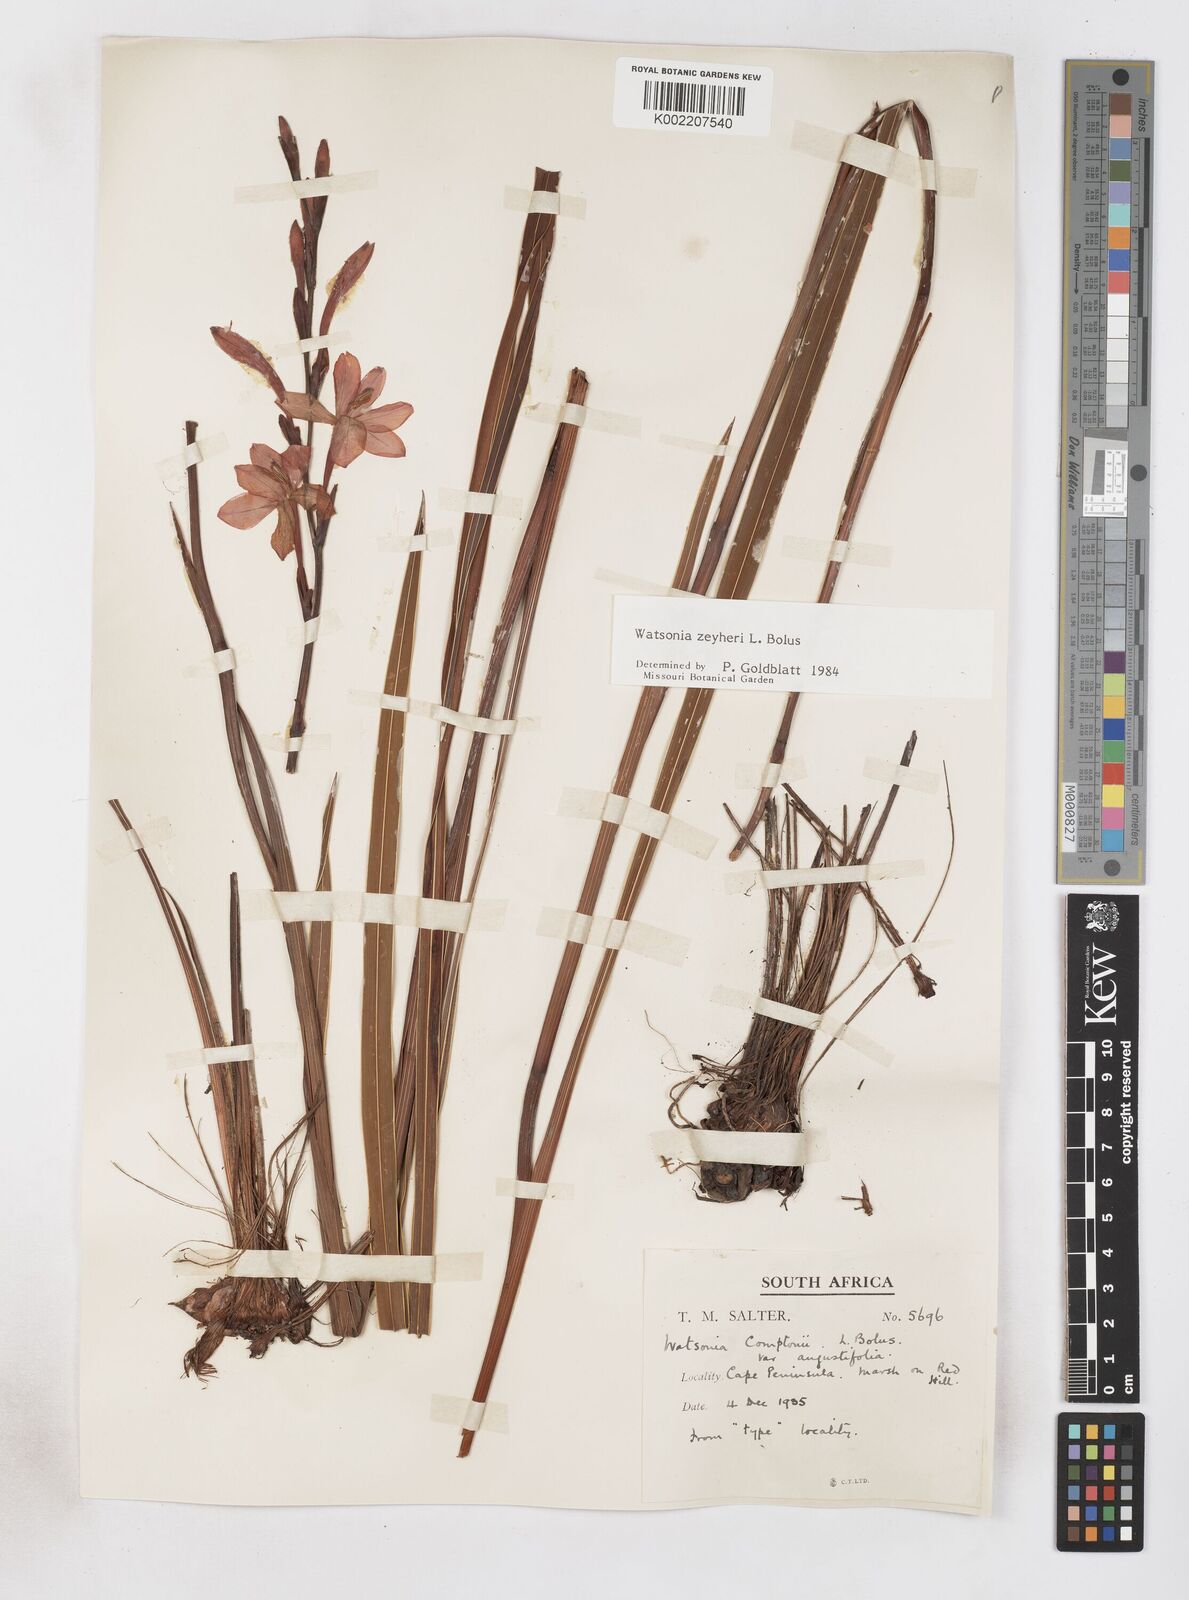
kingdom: Plantae
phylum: Tracheophyta
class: Liliopsida
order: Asparagales
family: Iridaceae
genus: Watsonia
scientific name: Watsonia zeyheri
